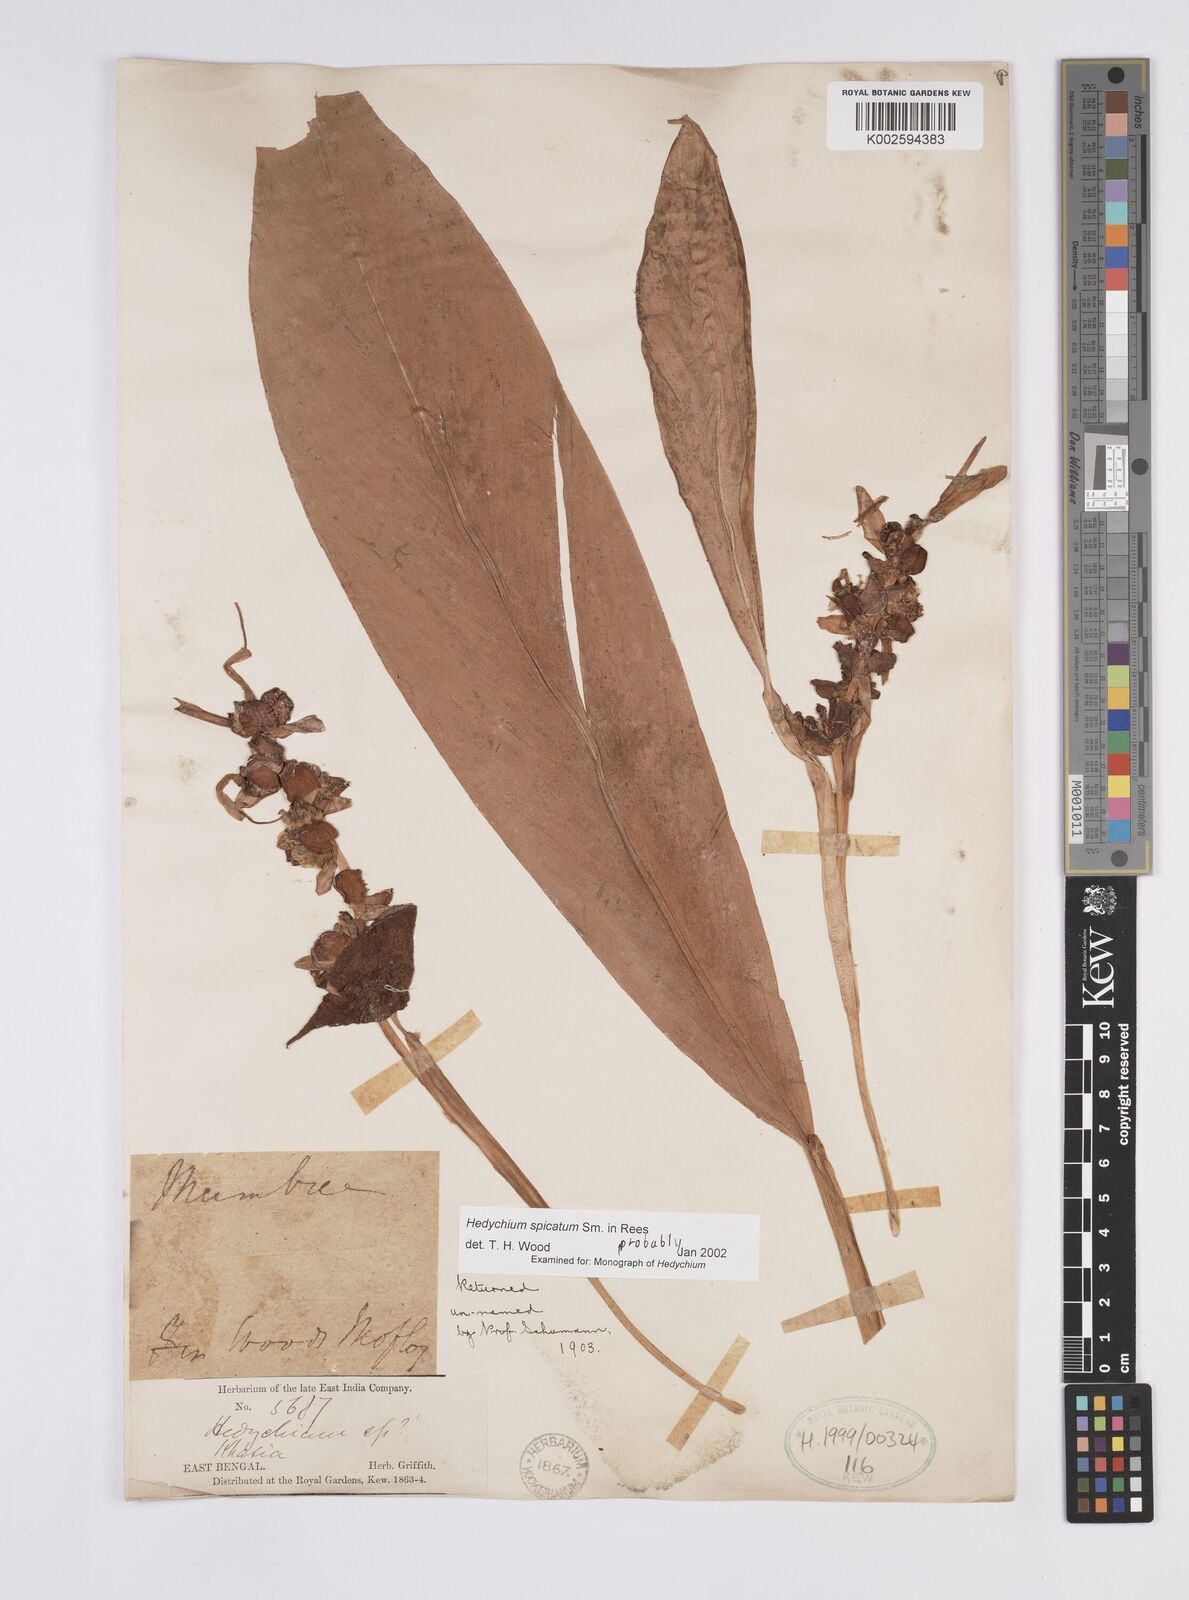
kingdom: Plantae
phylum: Tracheophyta
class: Liliopsida
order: Zingiberales
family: Zingiberaceae
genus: Hedychium
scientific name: Hedychium spicatum
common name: Spiked ginger-lily
